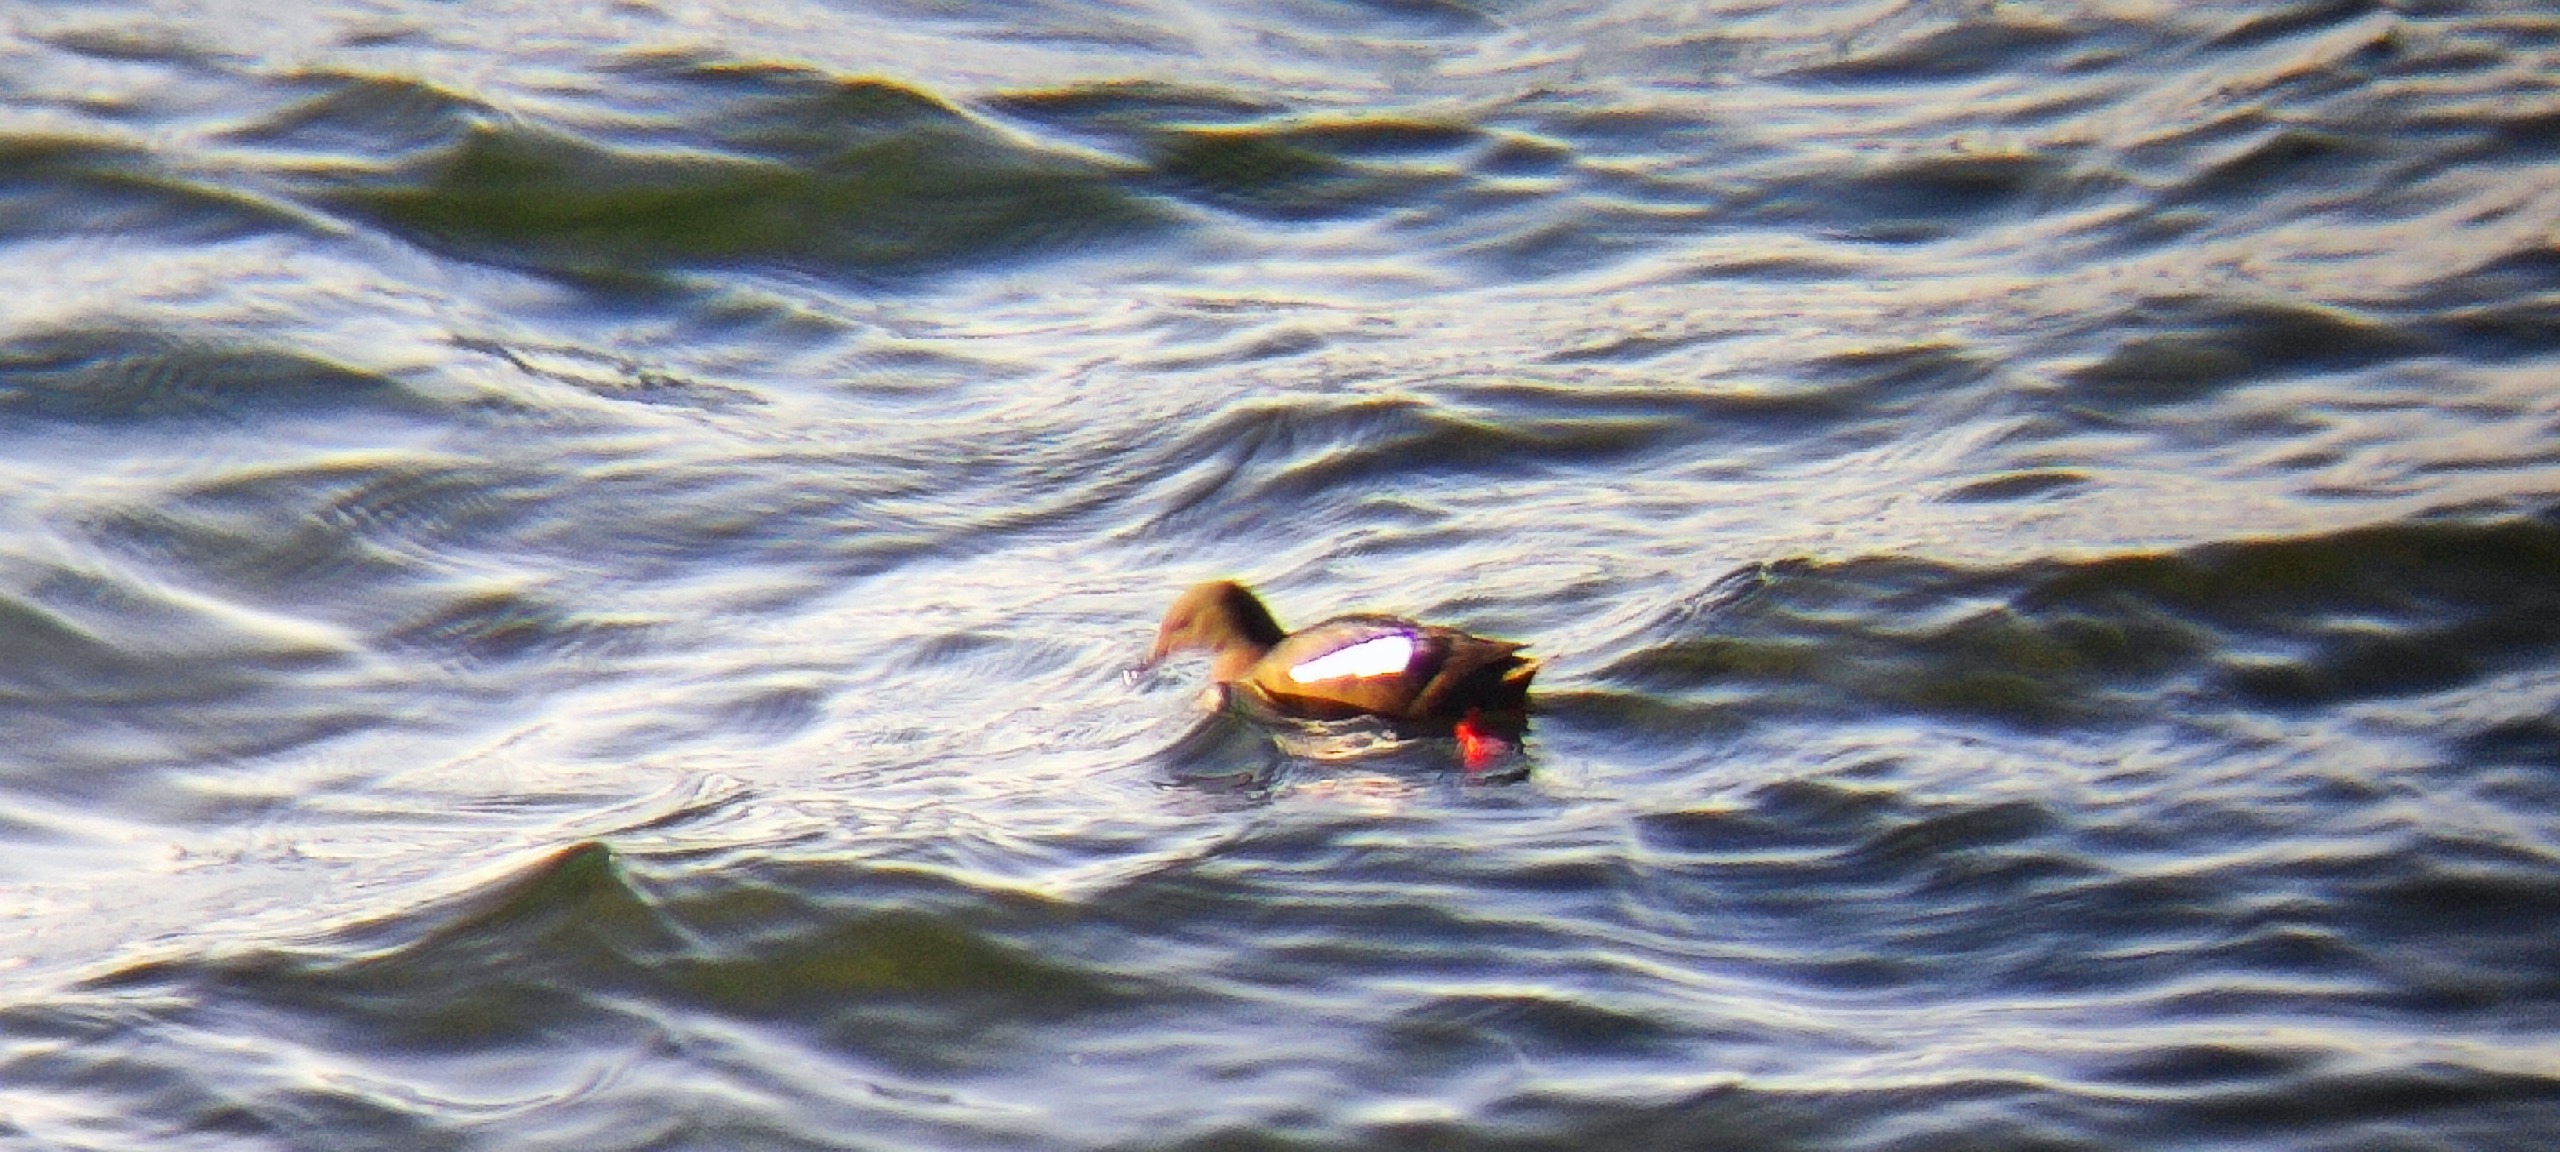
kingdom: Animalia
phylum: Chordata
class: Aves
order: Charadriiformes
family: Alcidae
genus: Cepphus
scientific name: Cepphus grylle
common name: Tejst
